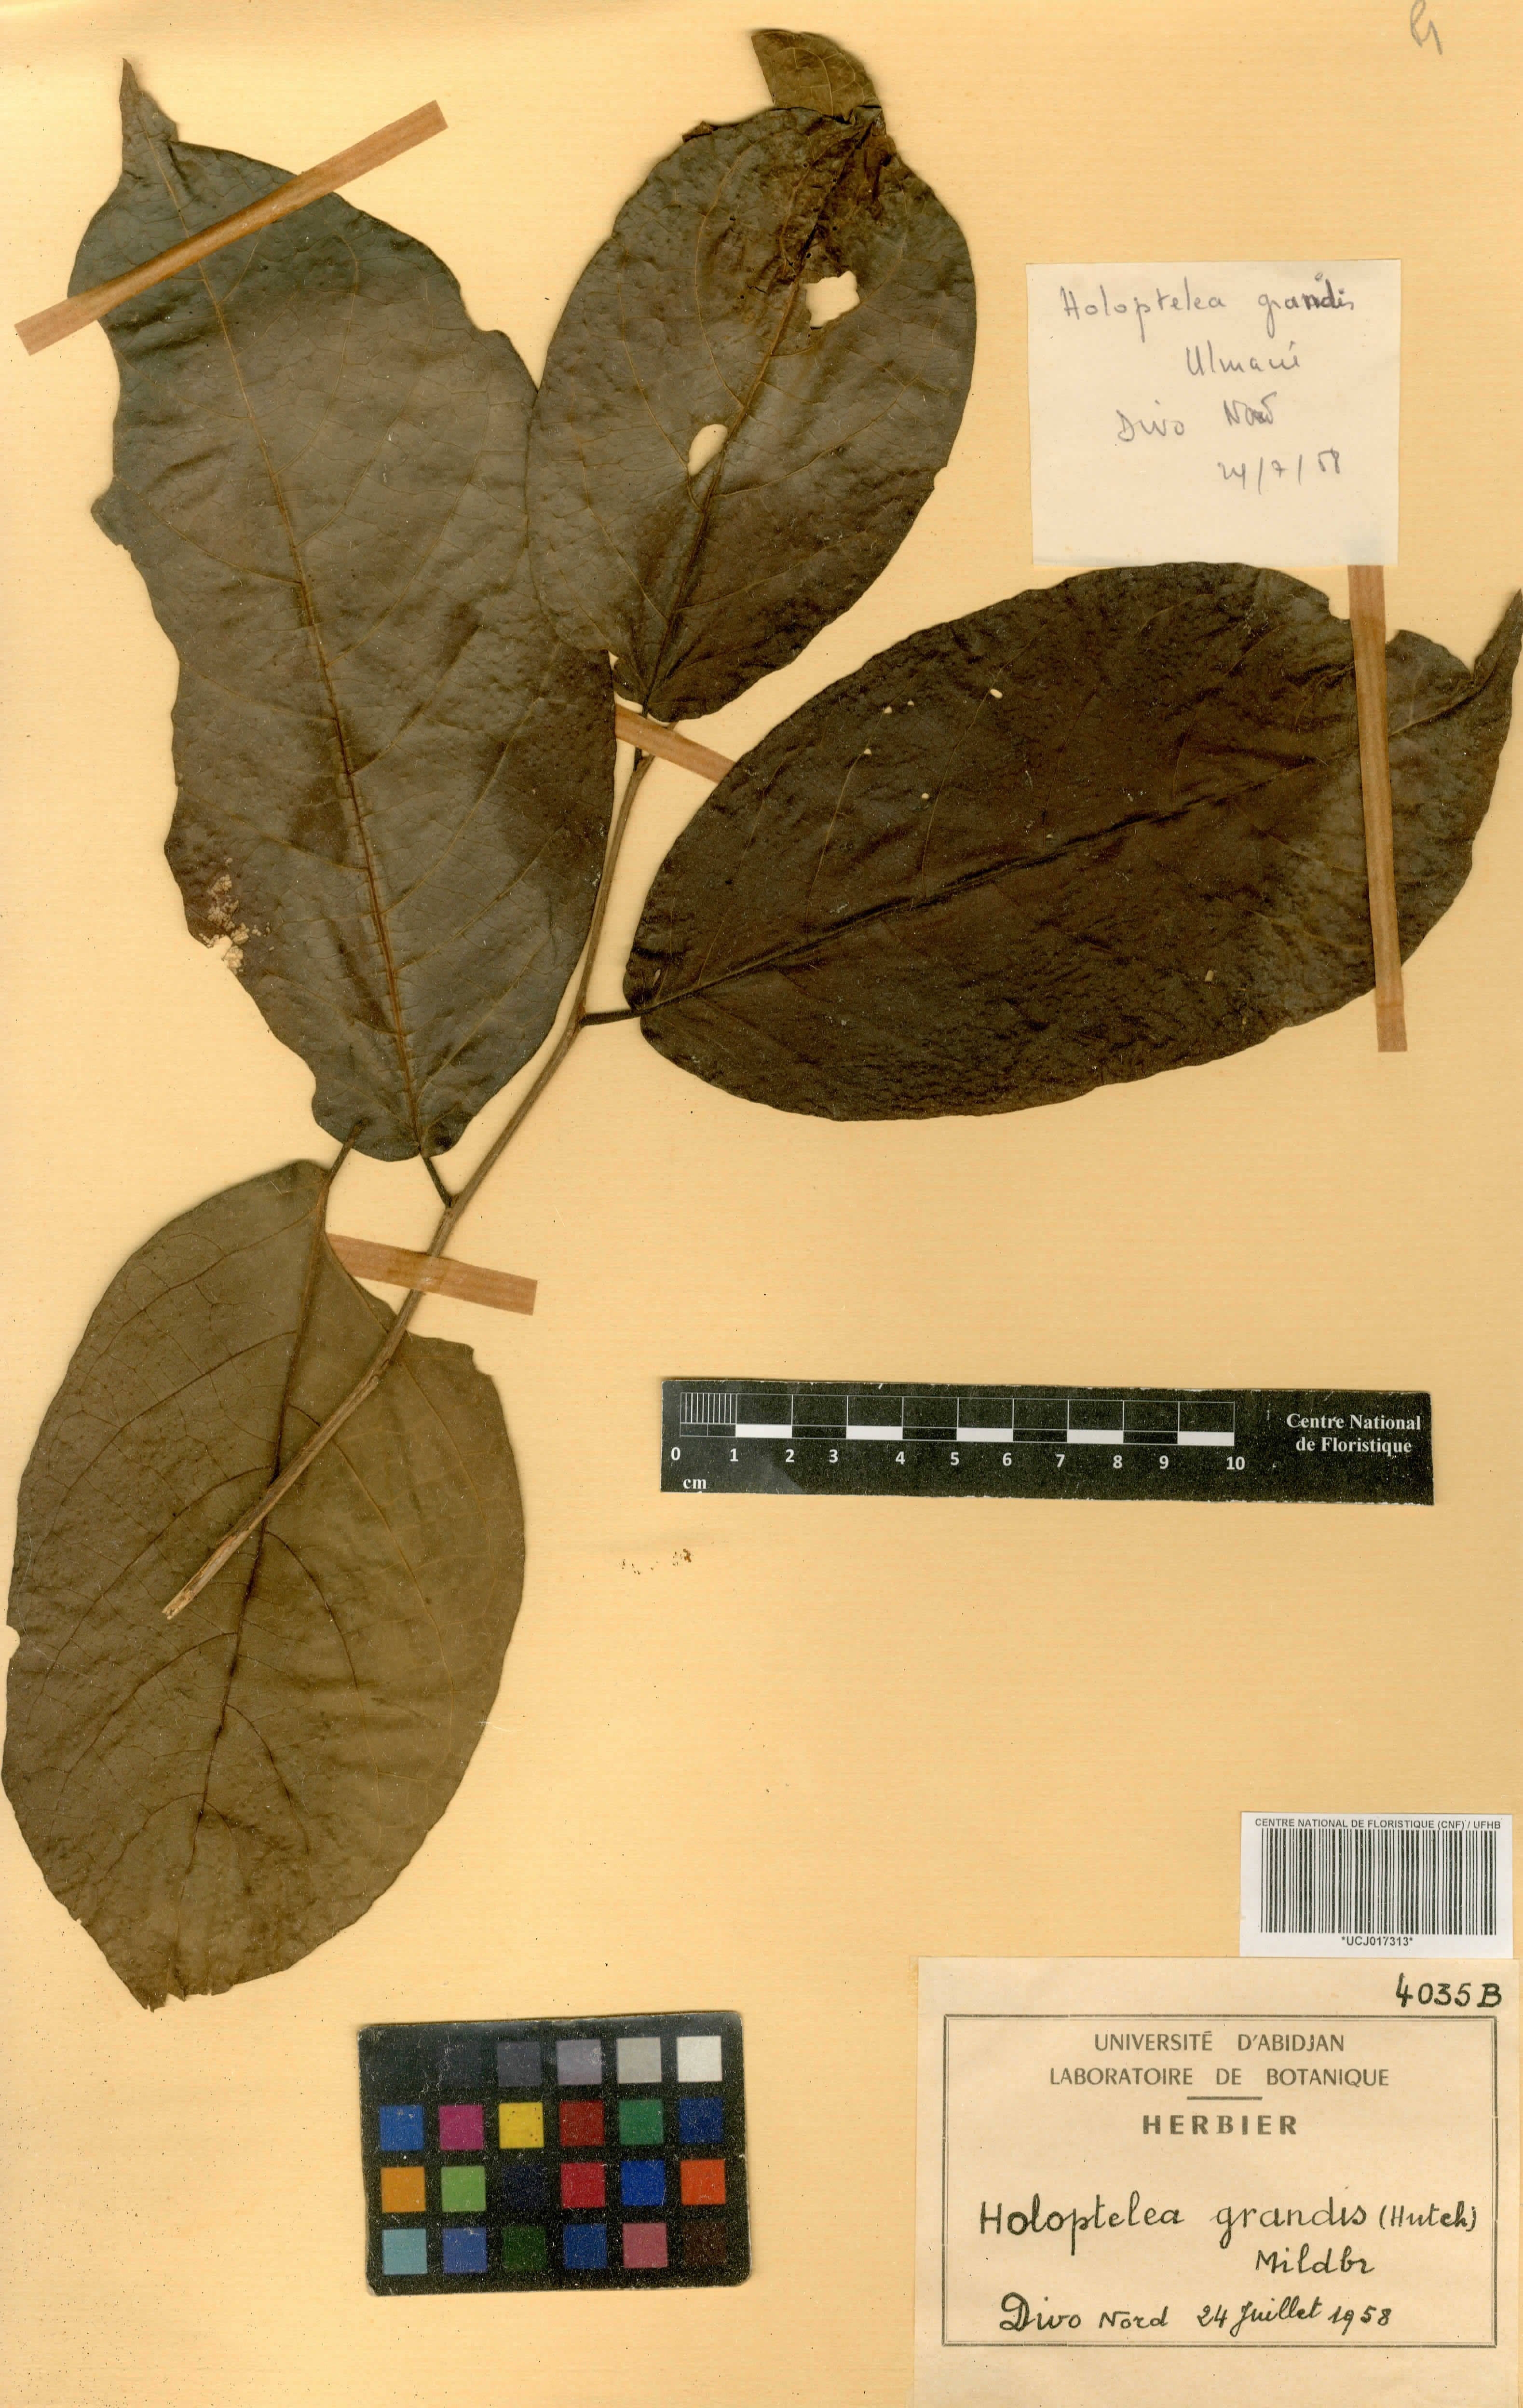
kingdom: Plantae
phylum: Tracheophyta
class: Magnoliopsida
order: Rosales
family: Ulmaceae
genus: Holoptelea
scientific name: Holoptelea grandis
